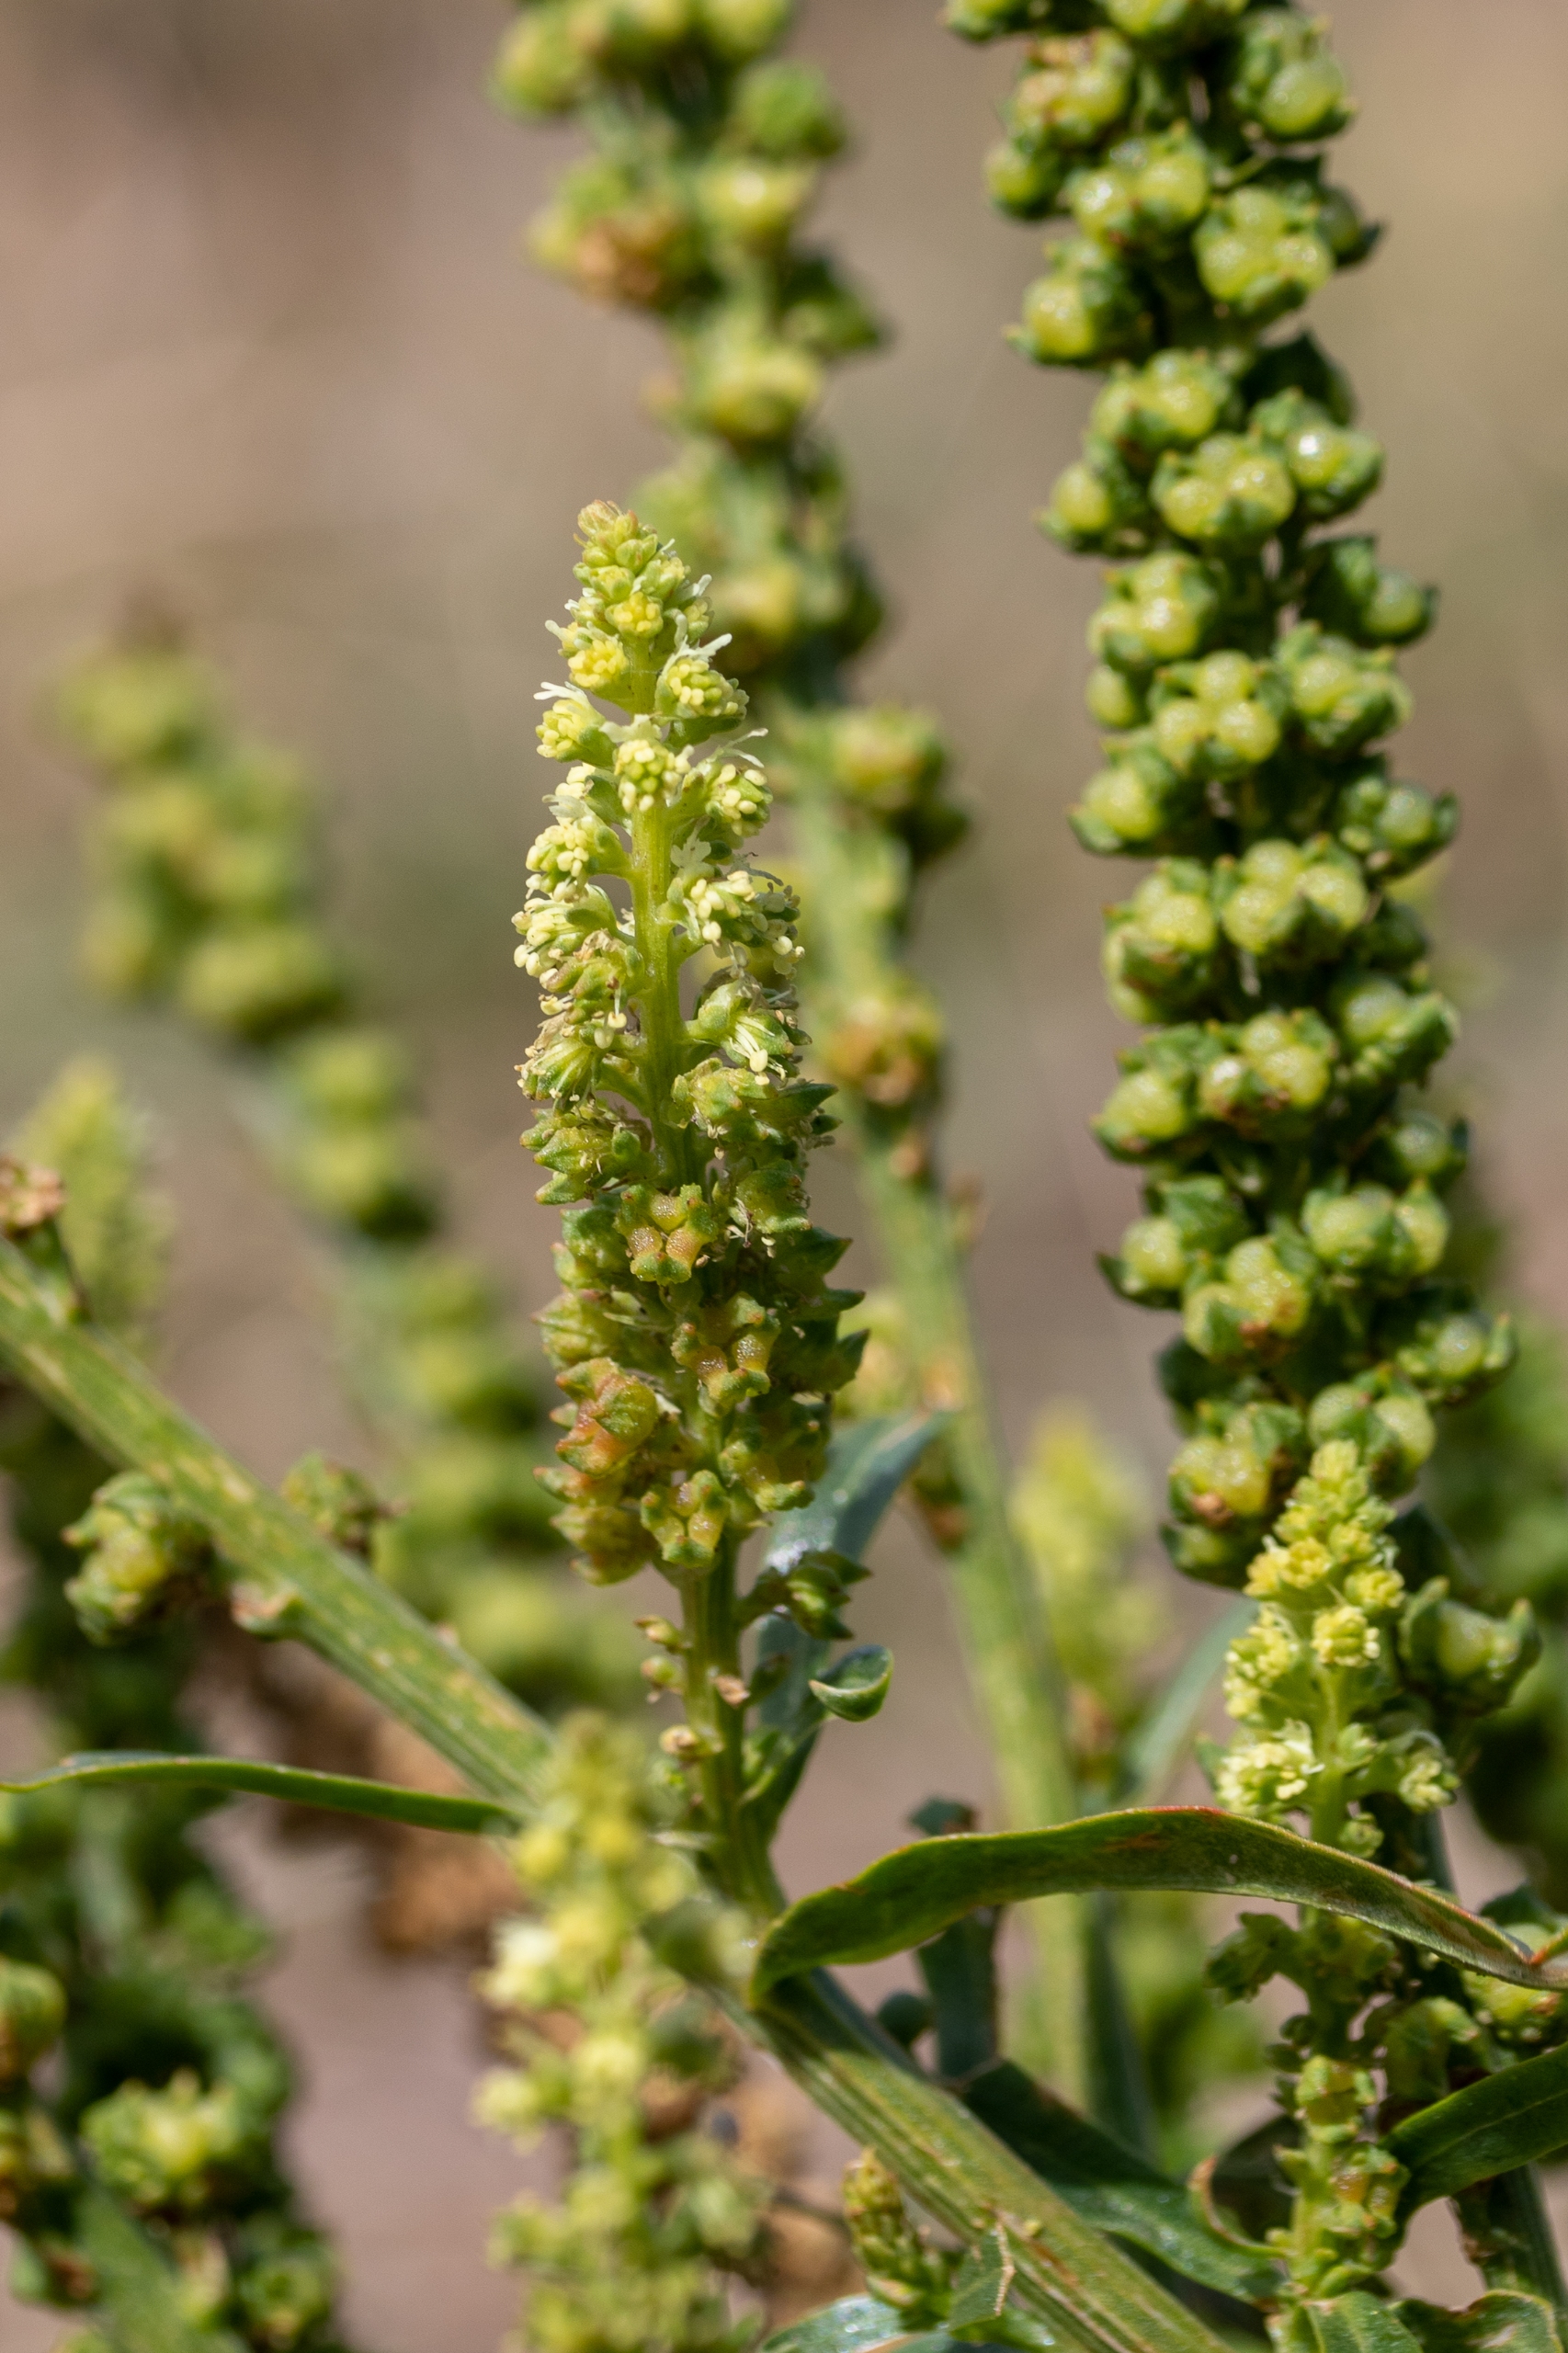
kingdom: Plantae
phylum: Tracheophyta
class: Magnoliopsida
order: Brassicales
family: Resedaceae
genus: Reseda
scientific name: Reseda luteola
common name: Farve-reseda
